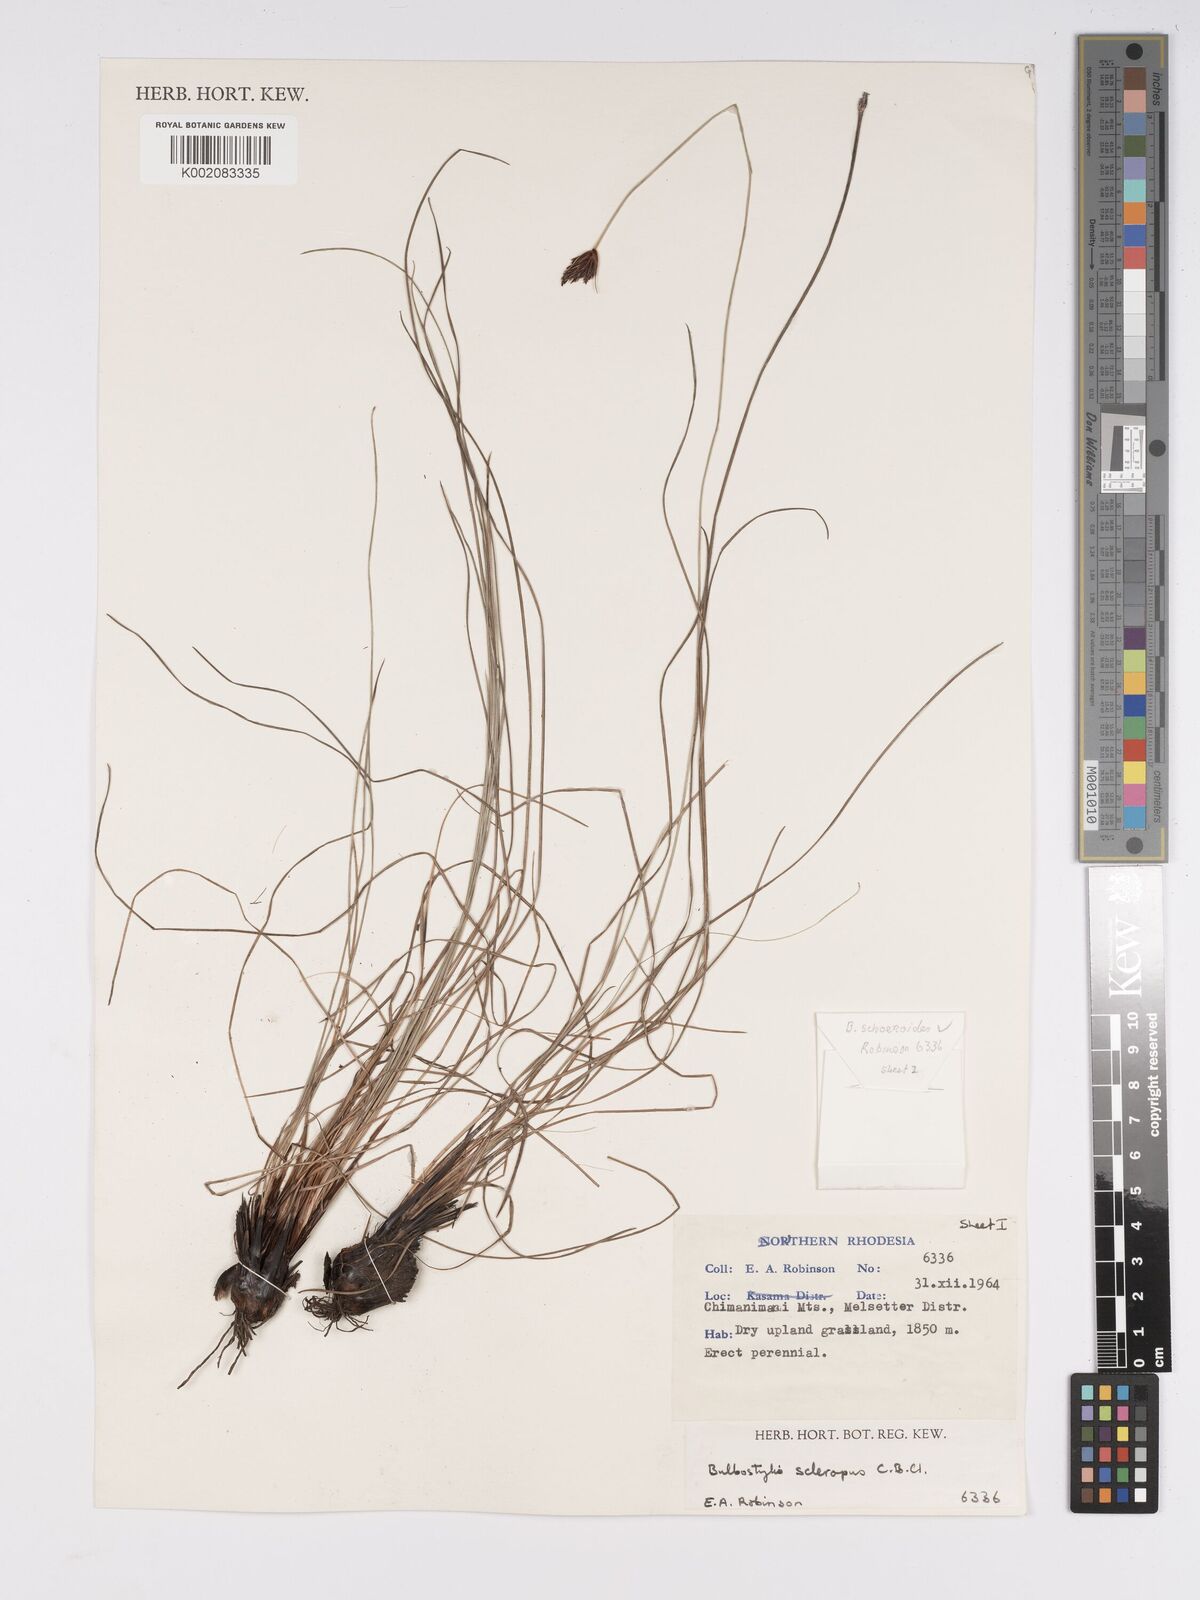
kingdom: Plantae
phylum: Tracheophyta
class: Liliopsida
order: Poales
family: Cyperaceae
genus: Bulbostylis
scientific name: Bulbostylis schoenoides
